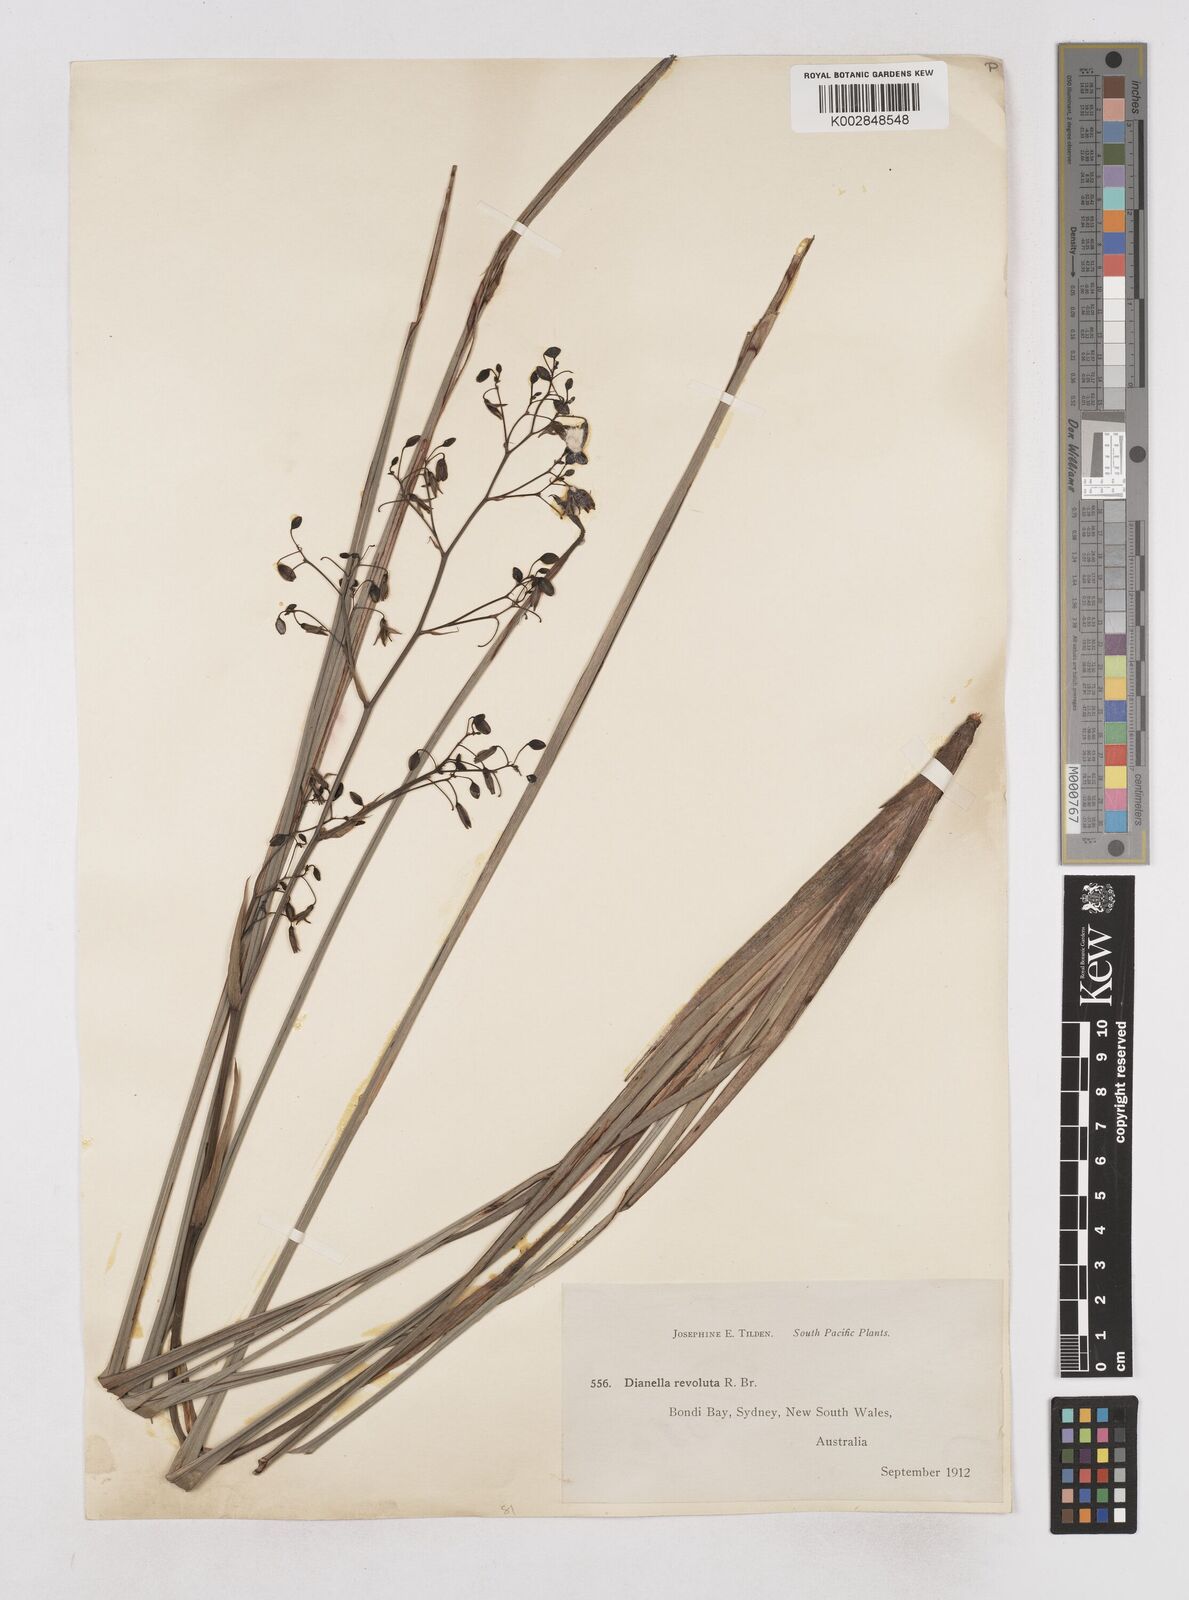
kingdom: Plantae
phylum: Tracheophyta
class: Liliopsida
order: Asparagales
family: Asphodelaceae
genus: Dianella
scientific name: Dianella revoluta
